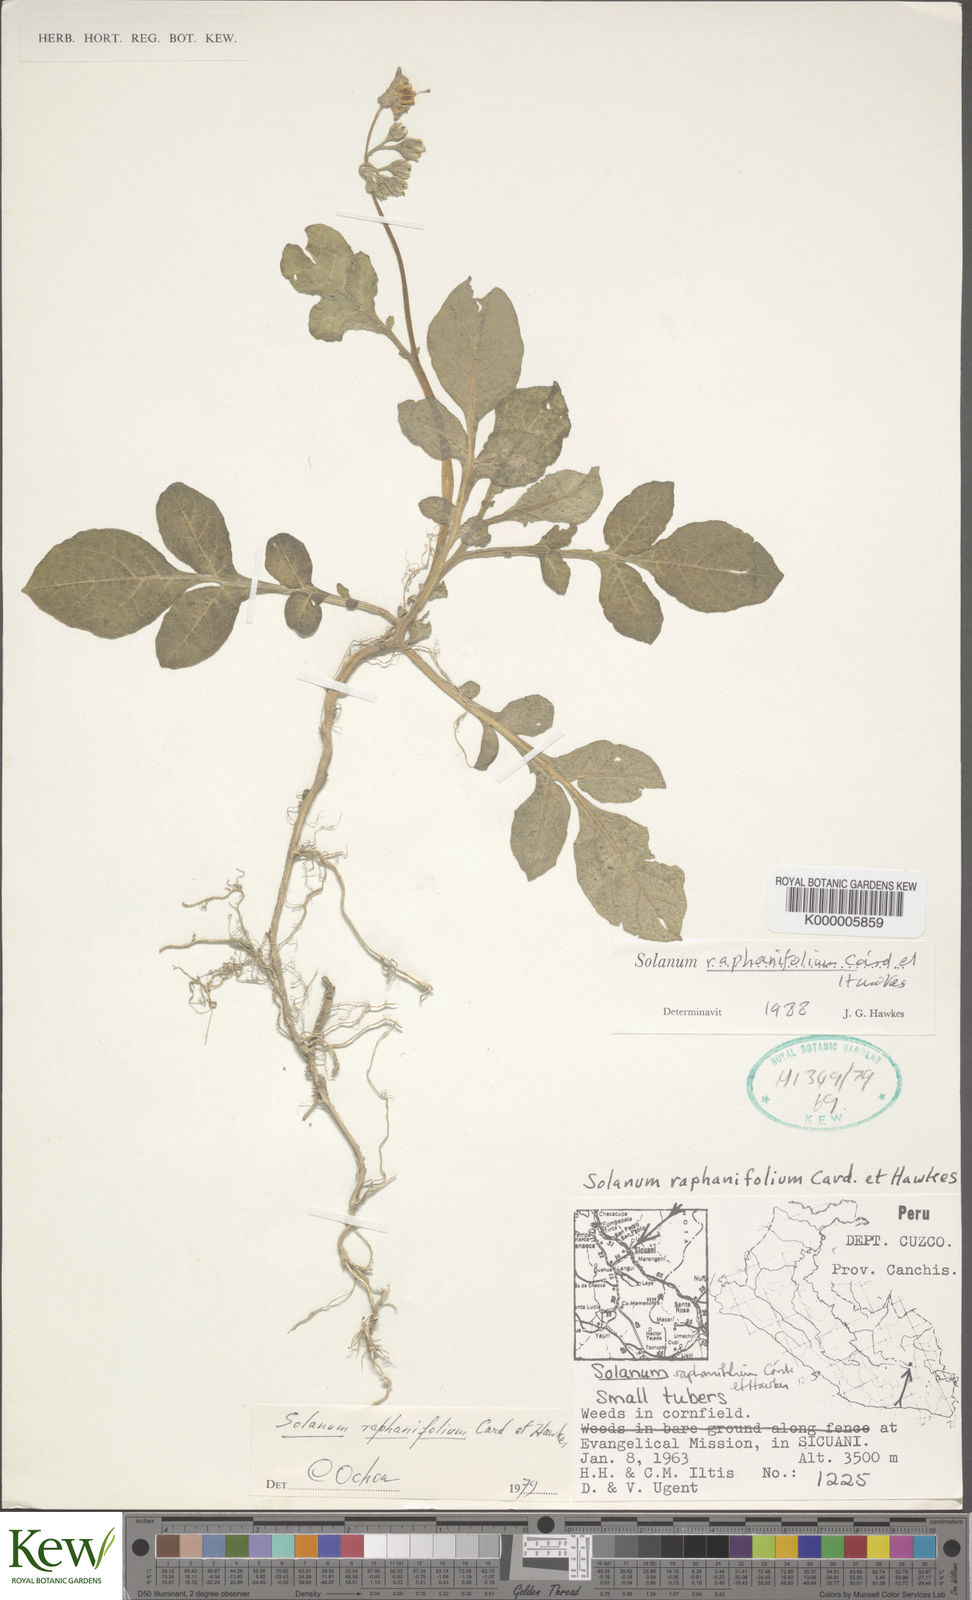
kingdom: Plantae
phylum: Tracheophyta
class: Magnoliopsida
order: Solanales
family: Solanaceae
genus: Solanum
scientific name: Solanum raphanifolium
